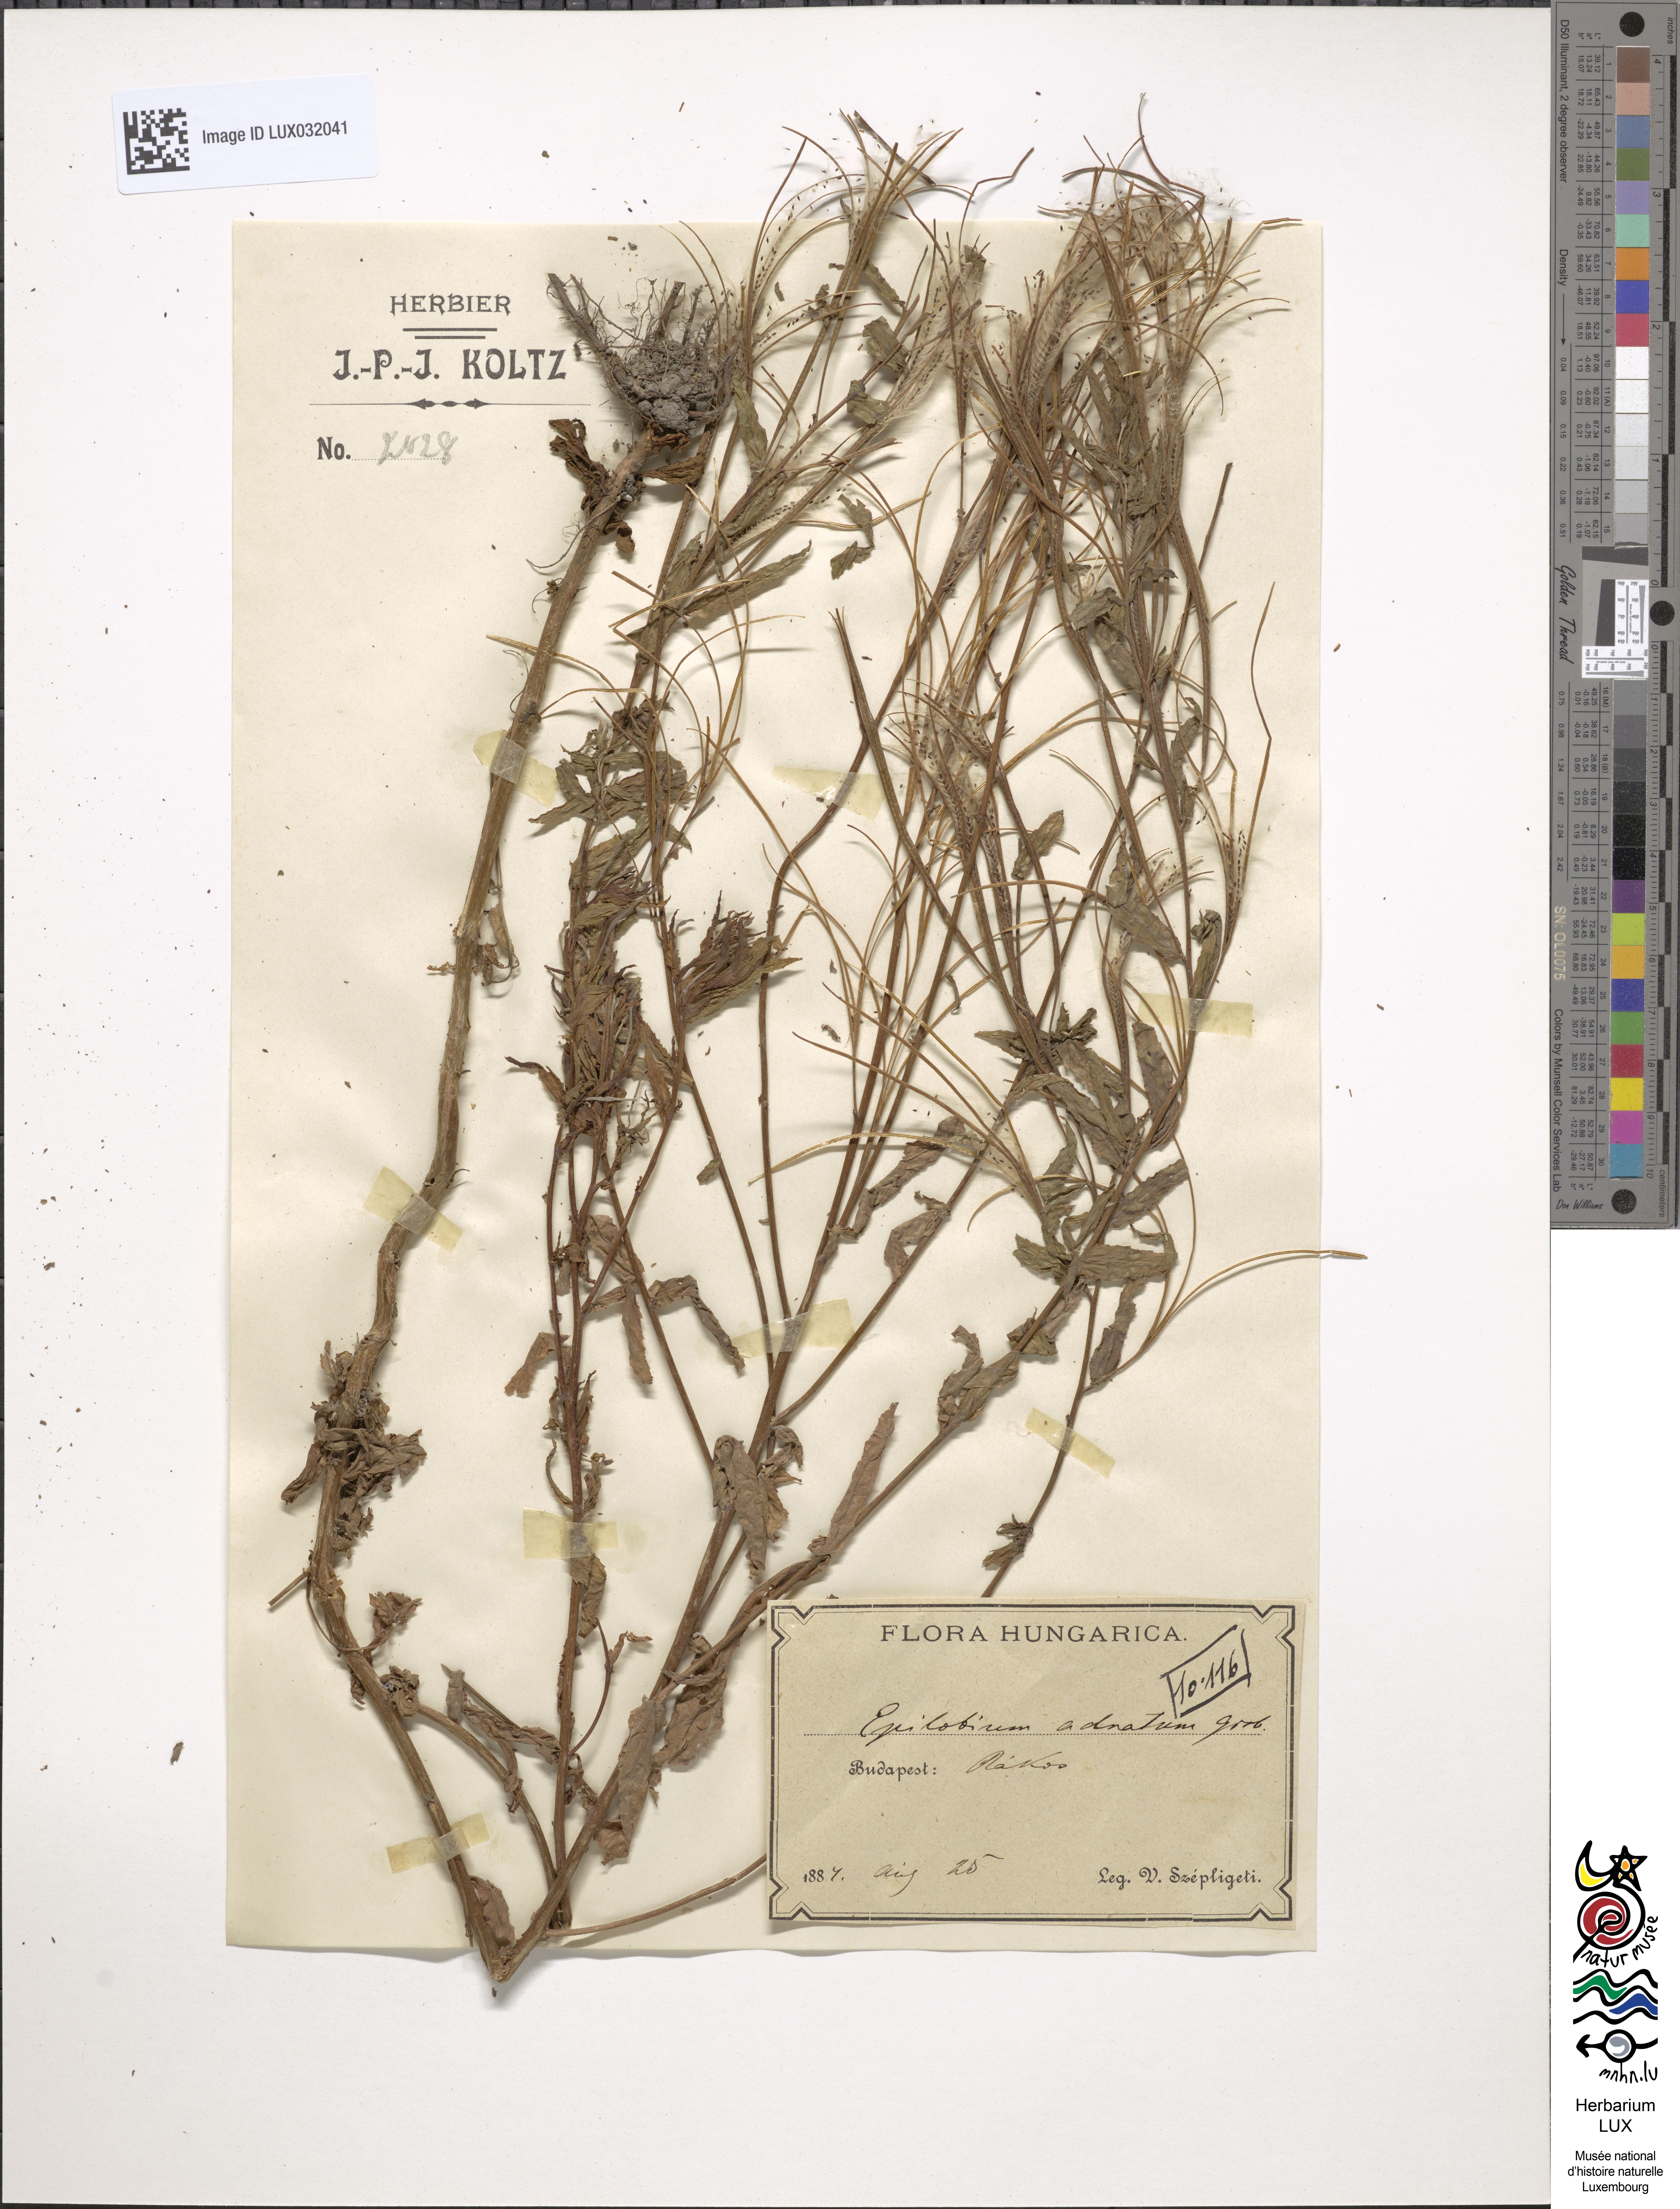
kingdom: Plantae
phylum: Tracheophyta
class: Magnoliopsida
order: Myrtales
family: Onagraceae
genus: Epilobium
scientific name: Epilobium tetragonum
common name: Square-stemmed willowherb
